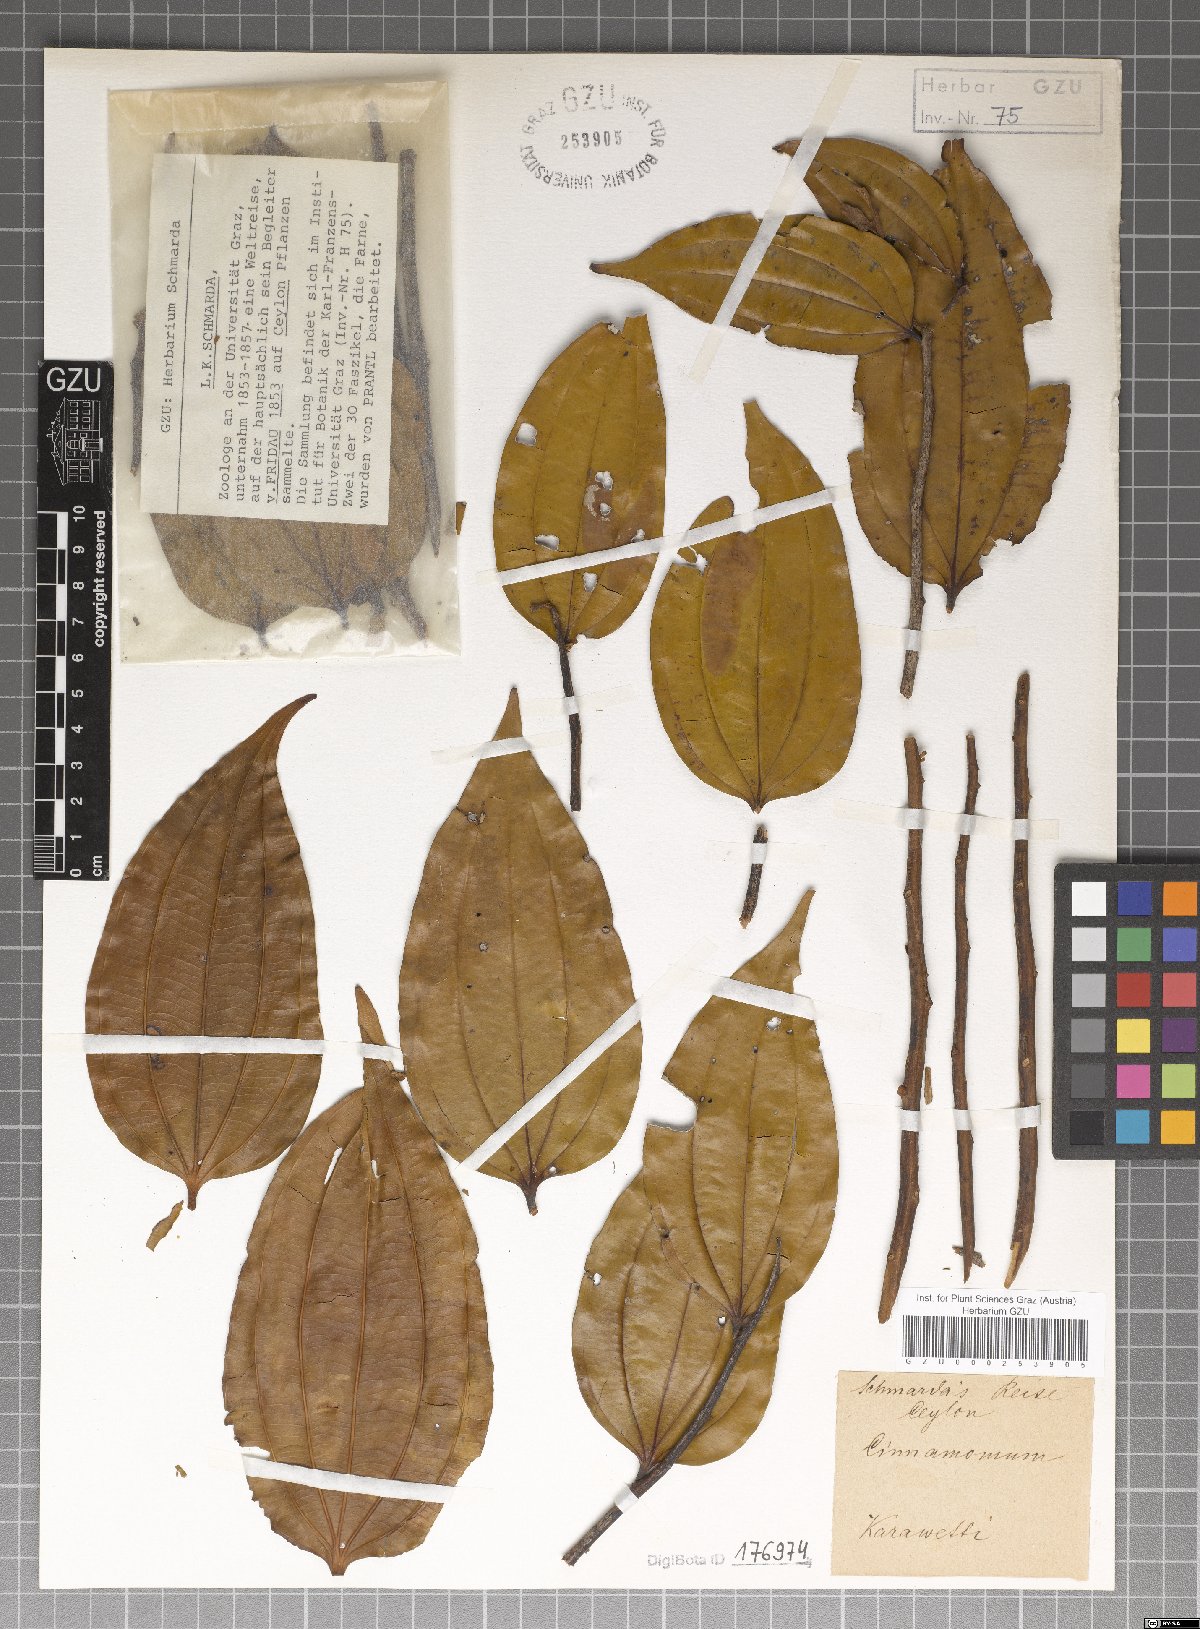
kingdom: Plantae
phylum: Tracheophyta
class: Magnoliopsida
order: Laurales
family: Lauraceae
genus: Cinnamomum
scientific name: Cinnamomum
